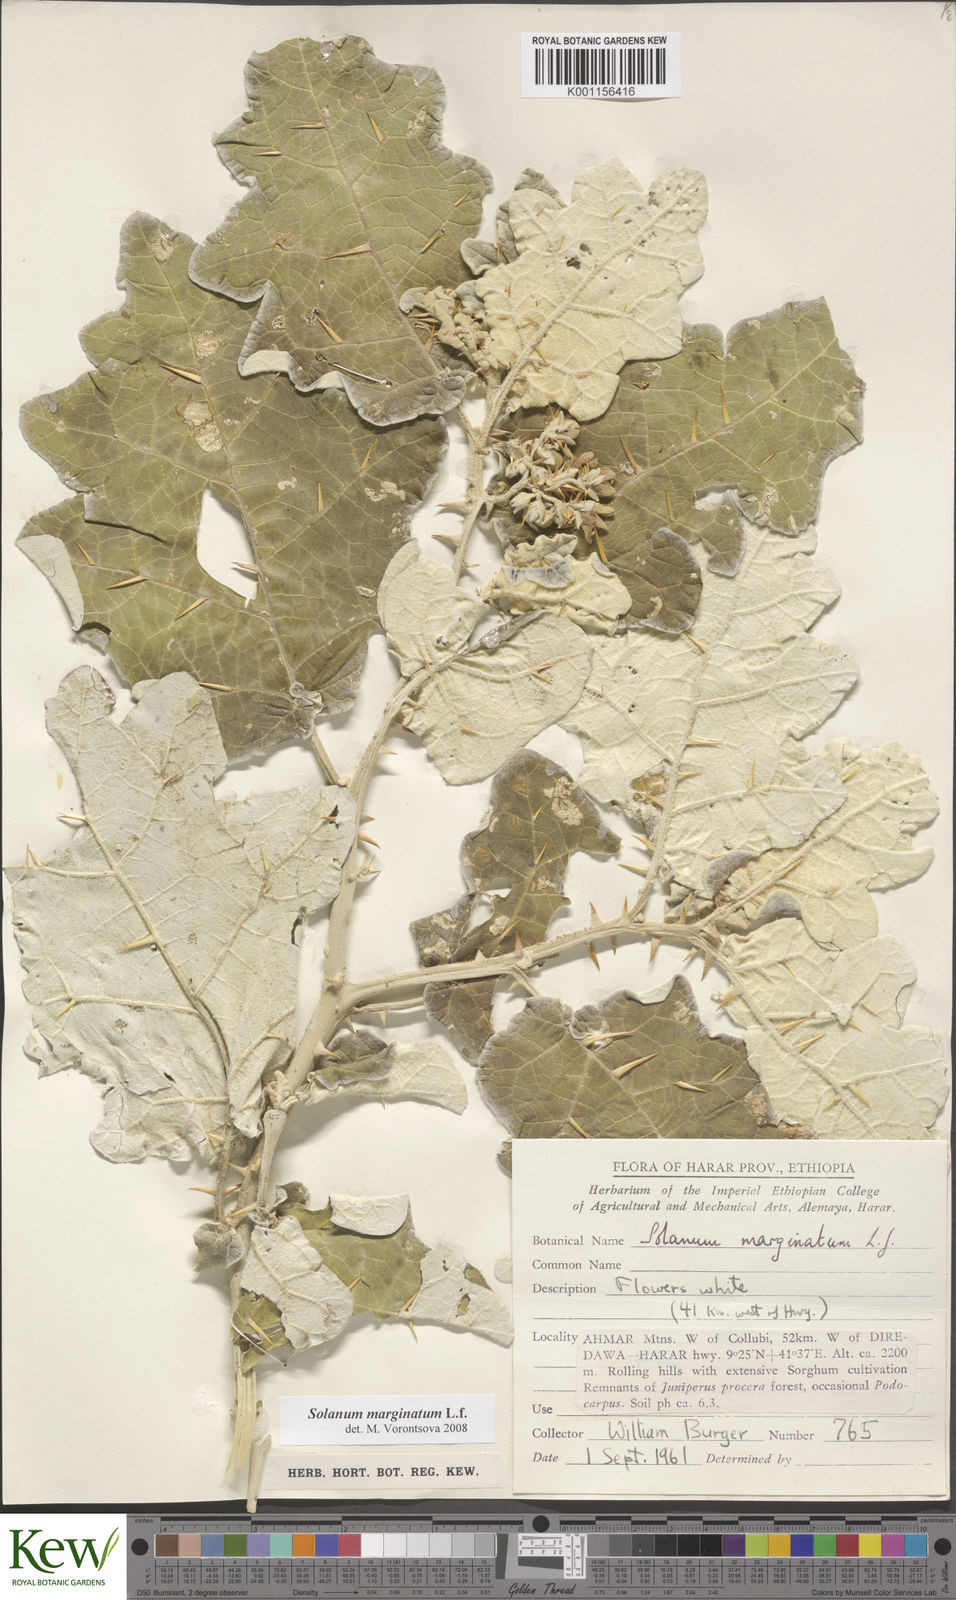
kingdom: Plantae
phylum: Tracheophyta
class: Magnoliopsida
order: Solanales
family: Solanaceae
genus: Solanum
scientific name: Solanum marginatum
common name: Purple african nightshade
